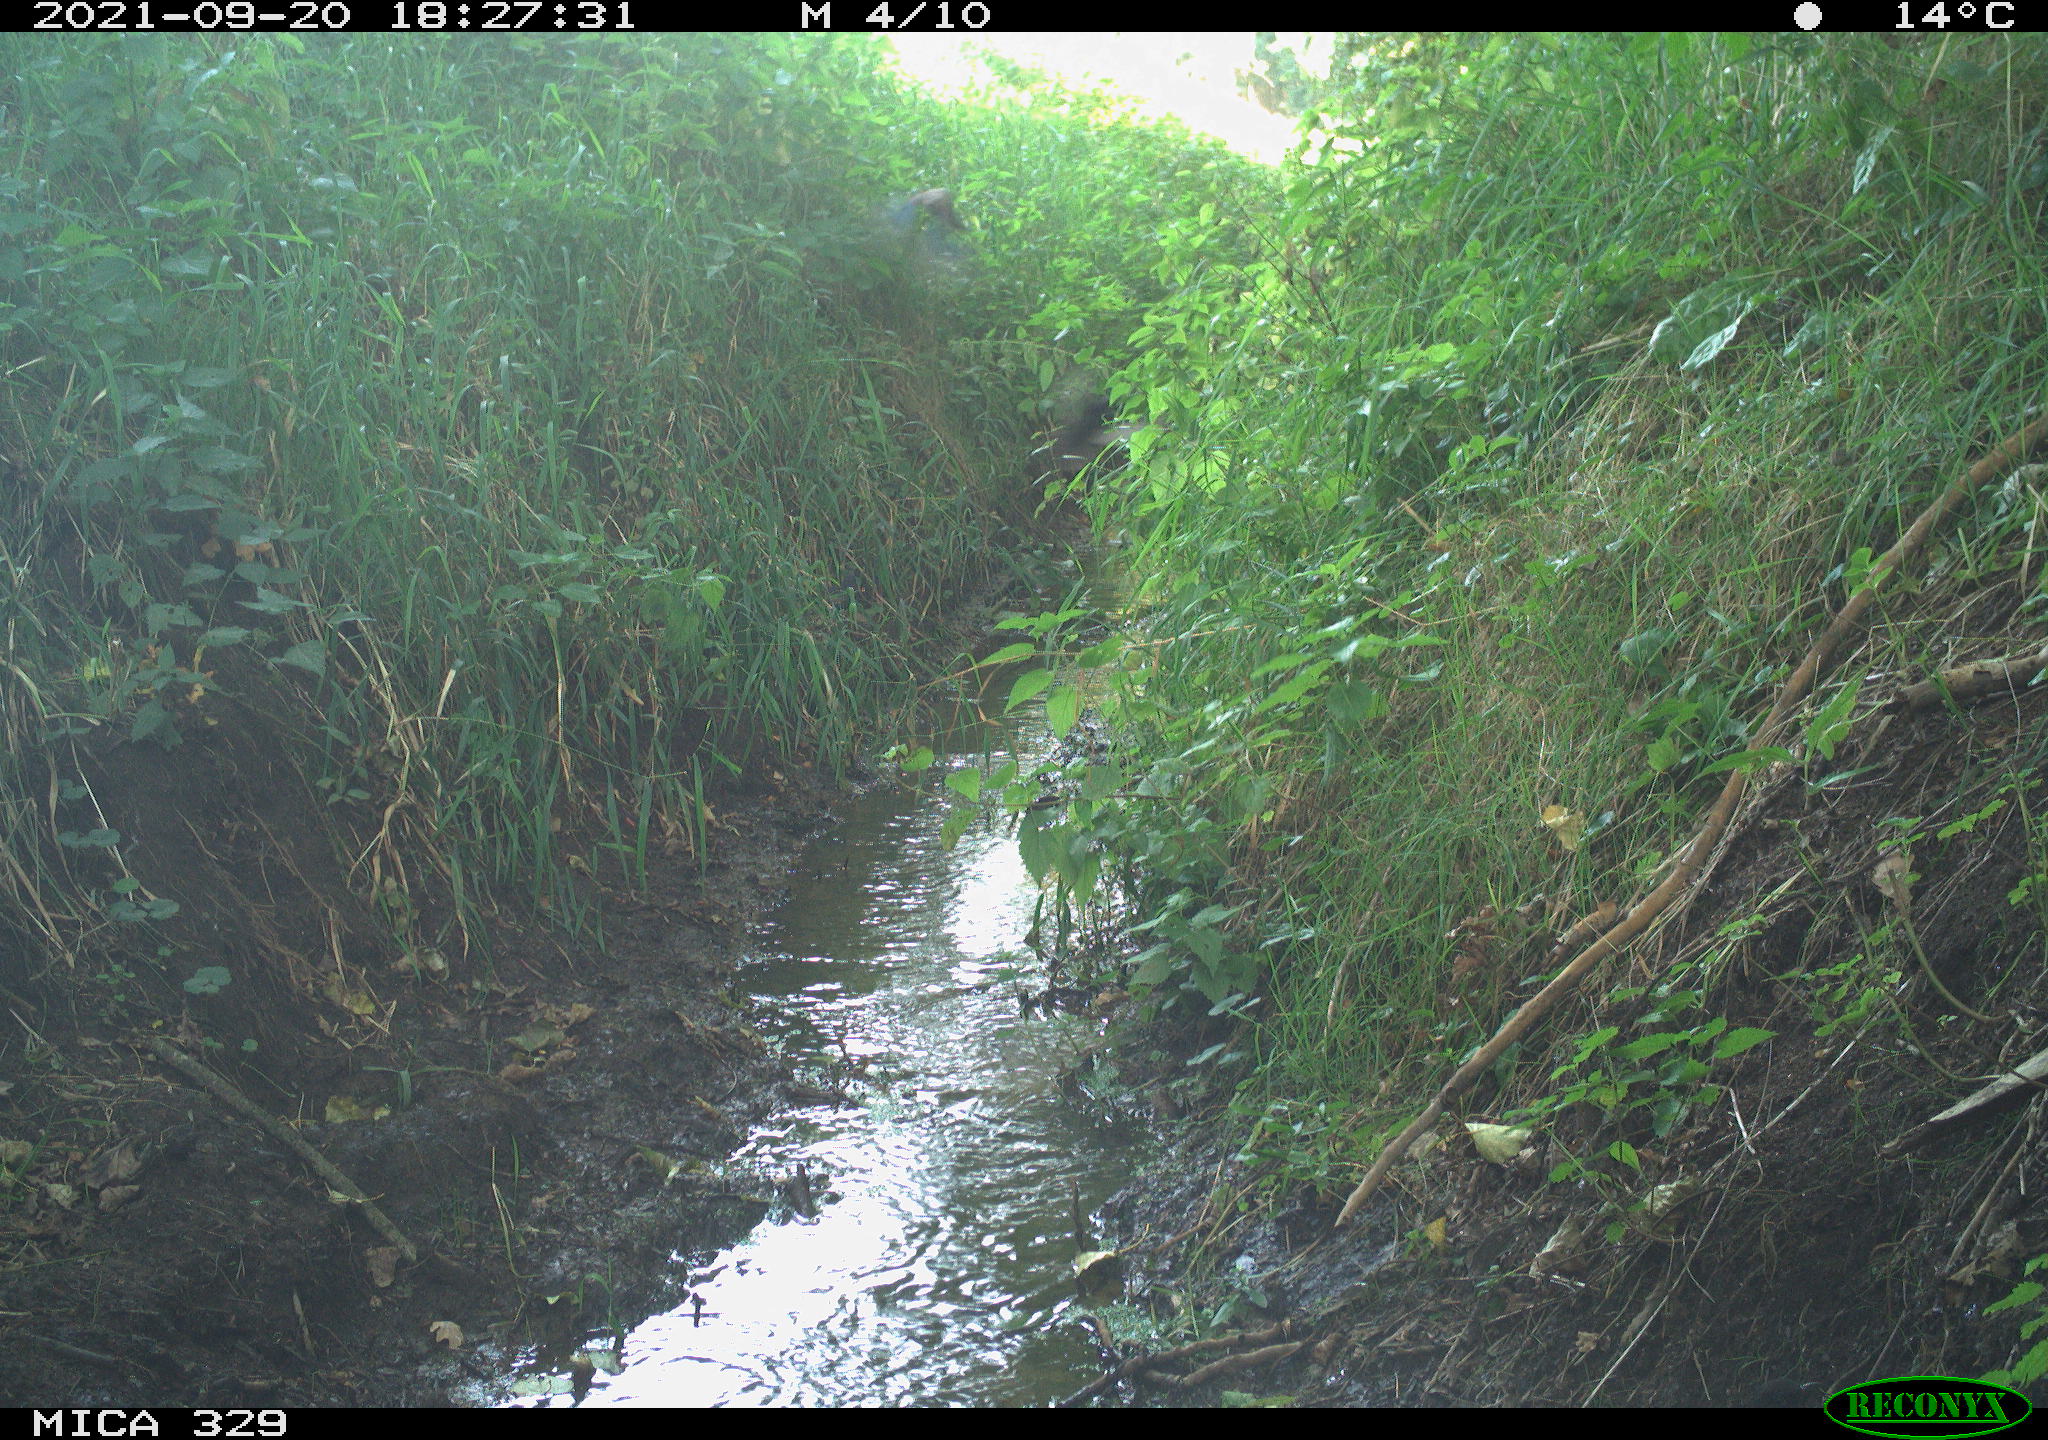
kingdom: Animalia
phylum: Chordata
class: Aves
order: Passeriformes
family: Corvidae
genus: Garrulus
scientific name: Garrulus glandarius
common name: Eurasian jay
